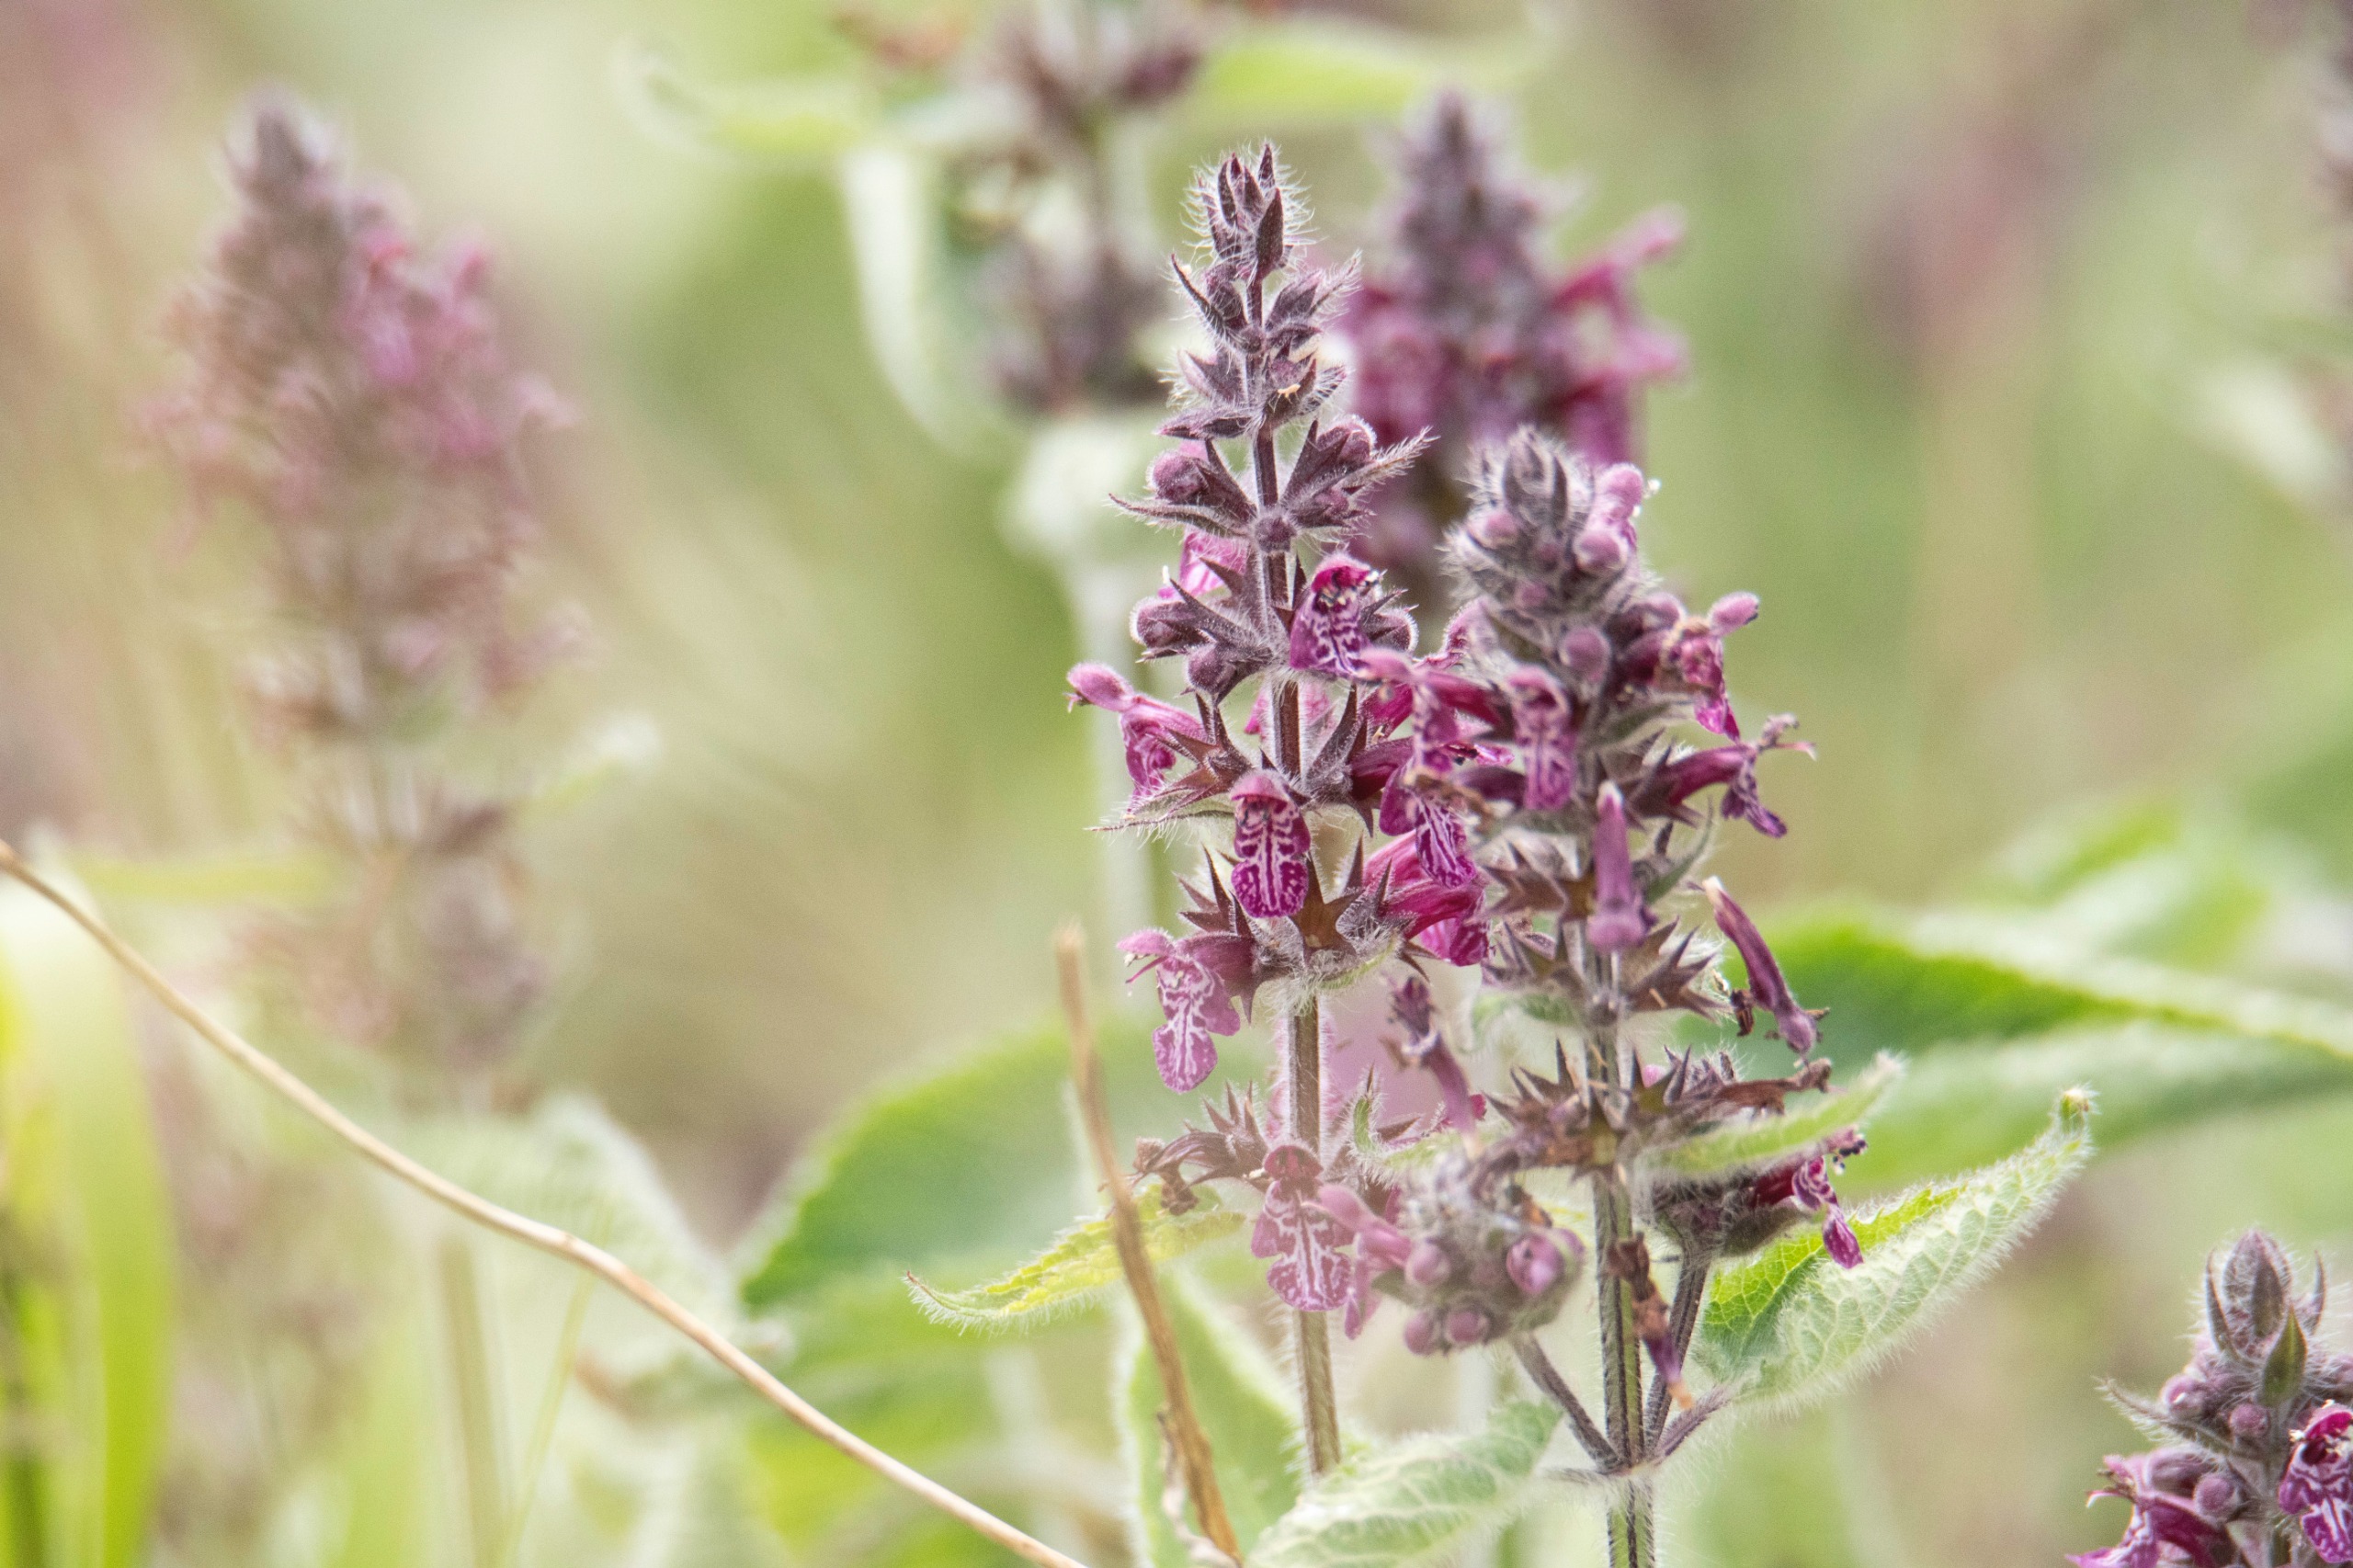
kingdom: Plantae
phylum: Tracheophyta
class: Magnoliopsida
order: Lamiales
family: Lamiaceae
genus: Stachys
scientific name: Stachys sylvatica
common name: Skov-galtetand
